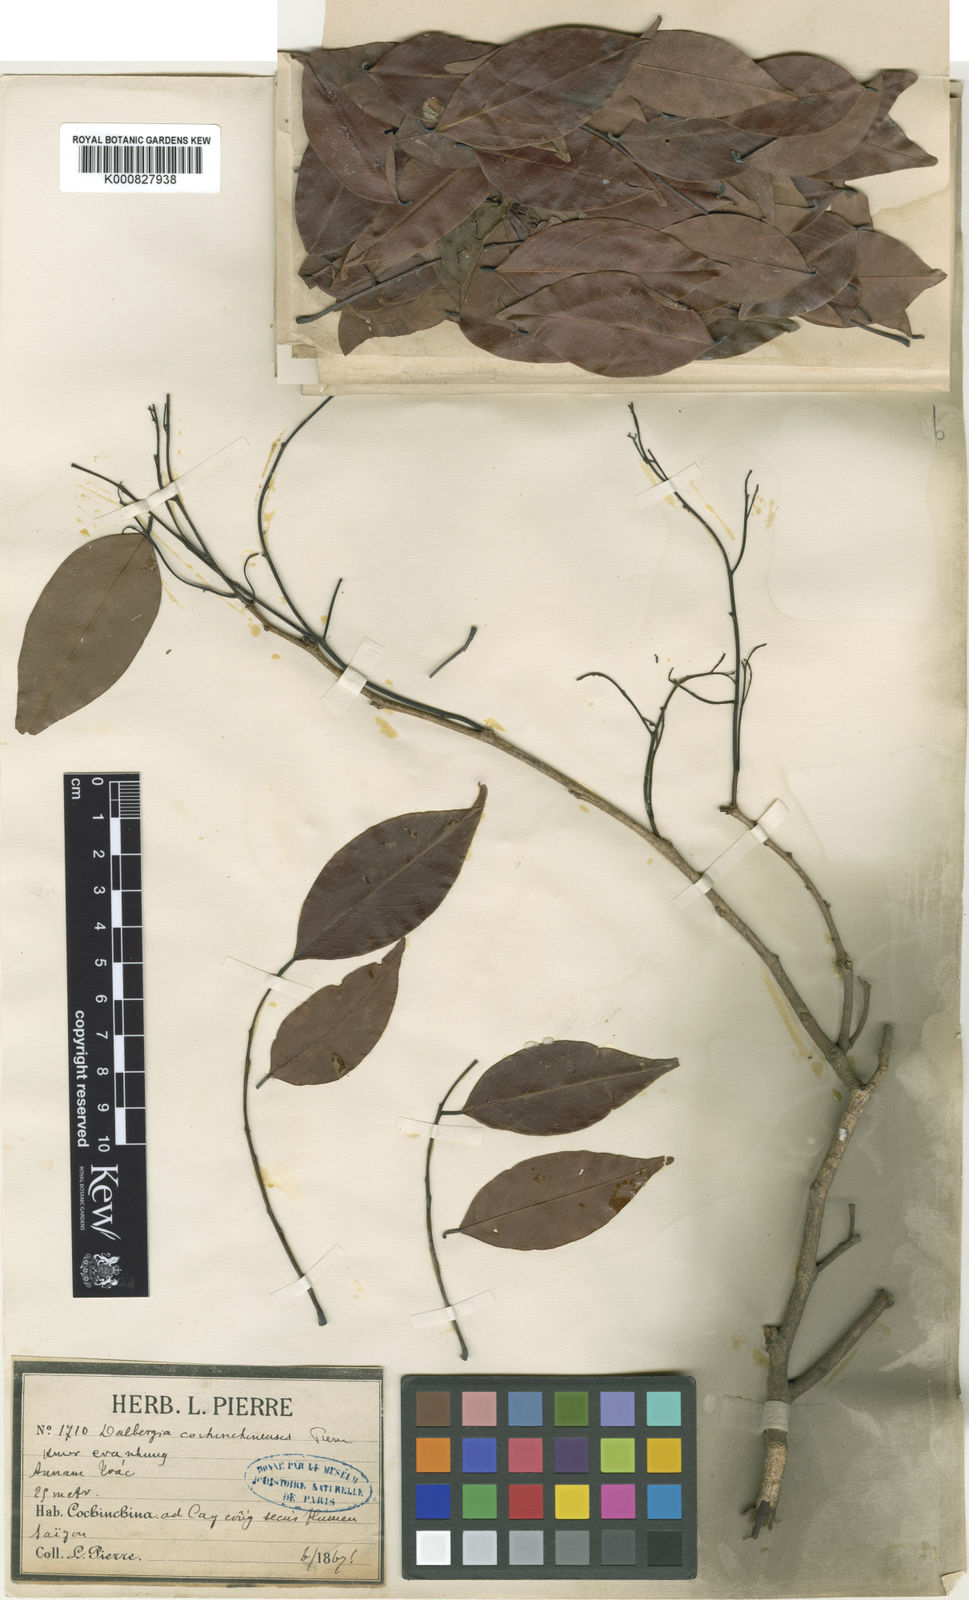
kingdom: Plantae
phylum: Tracheophyta
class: Magnoliopsida
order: Fabales
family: Fabaceae
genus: Dalbergia
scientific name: Dalbergia cochinchinensis
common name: Siamese rosewood
